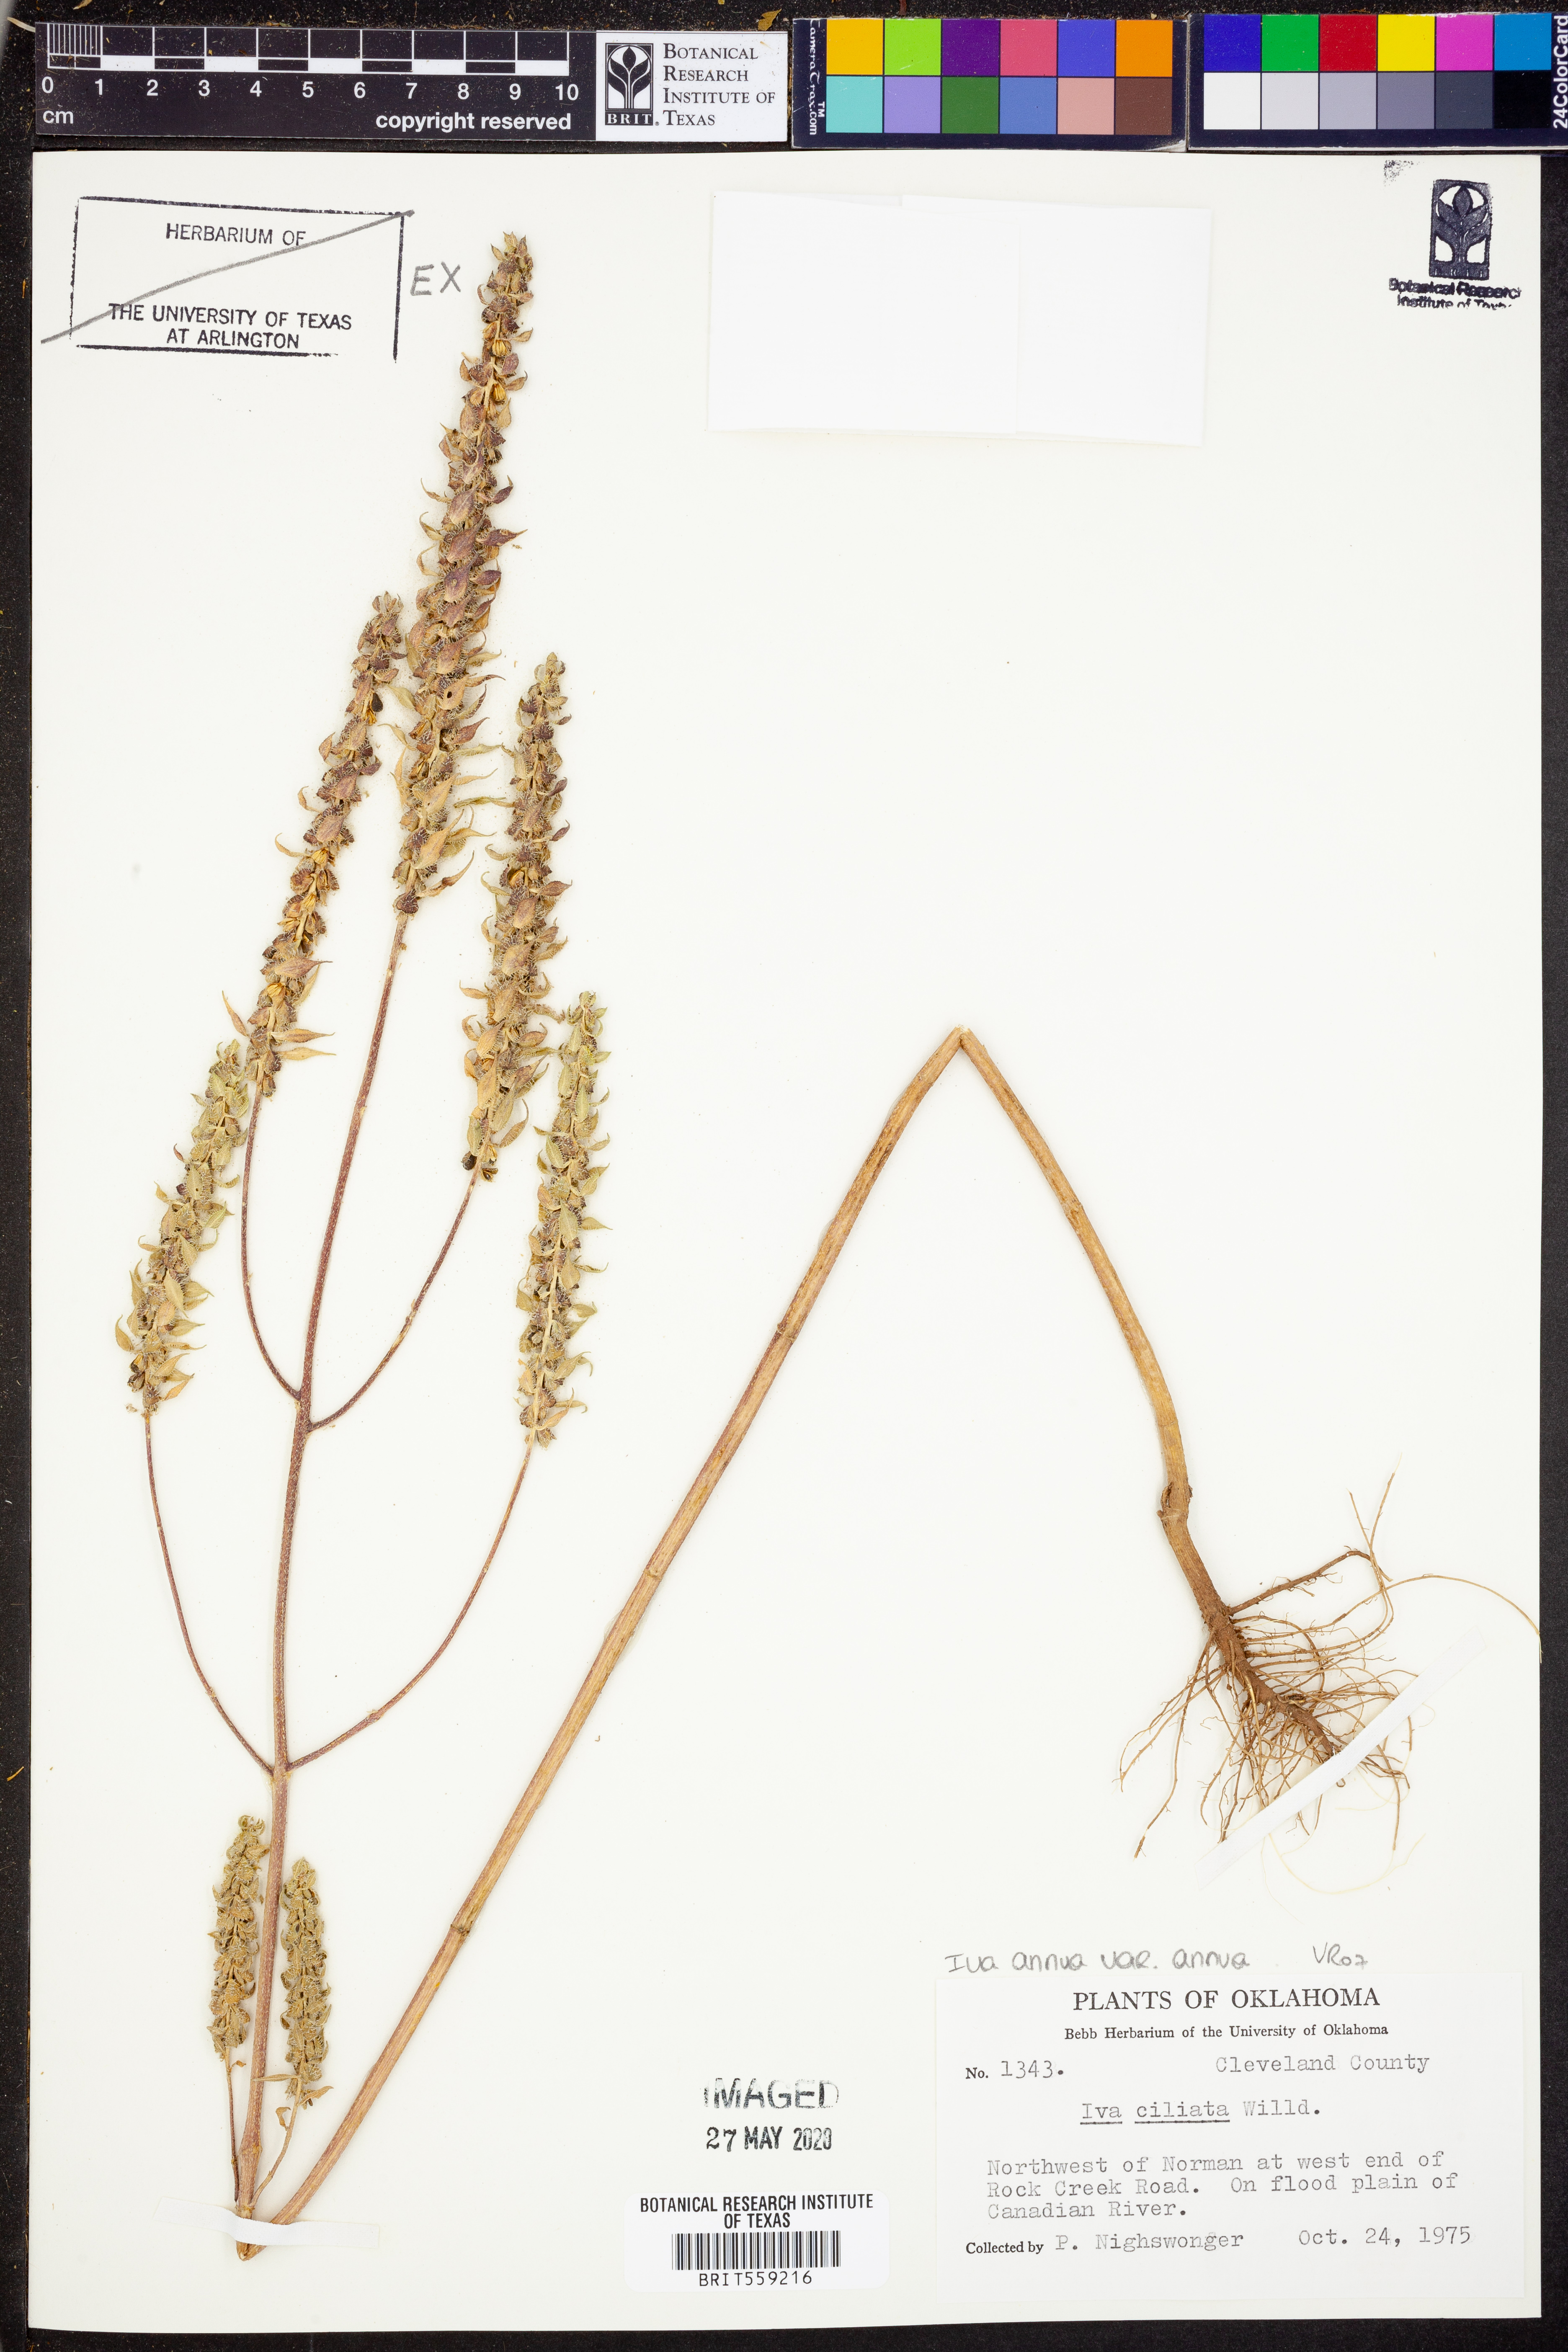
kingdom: Plantae
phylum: Tracheophyta
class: Magnoliopsida
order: Asterales
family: Asteraceae
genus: Iva
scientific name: Iva annua
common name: Marsh-elder
